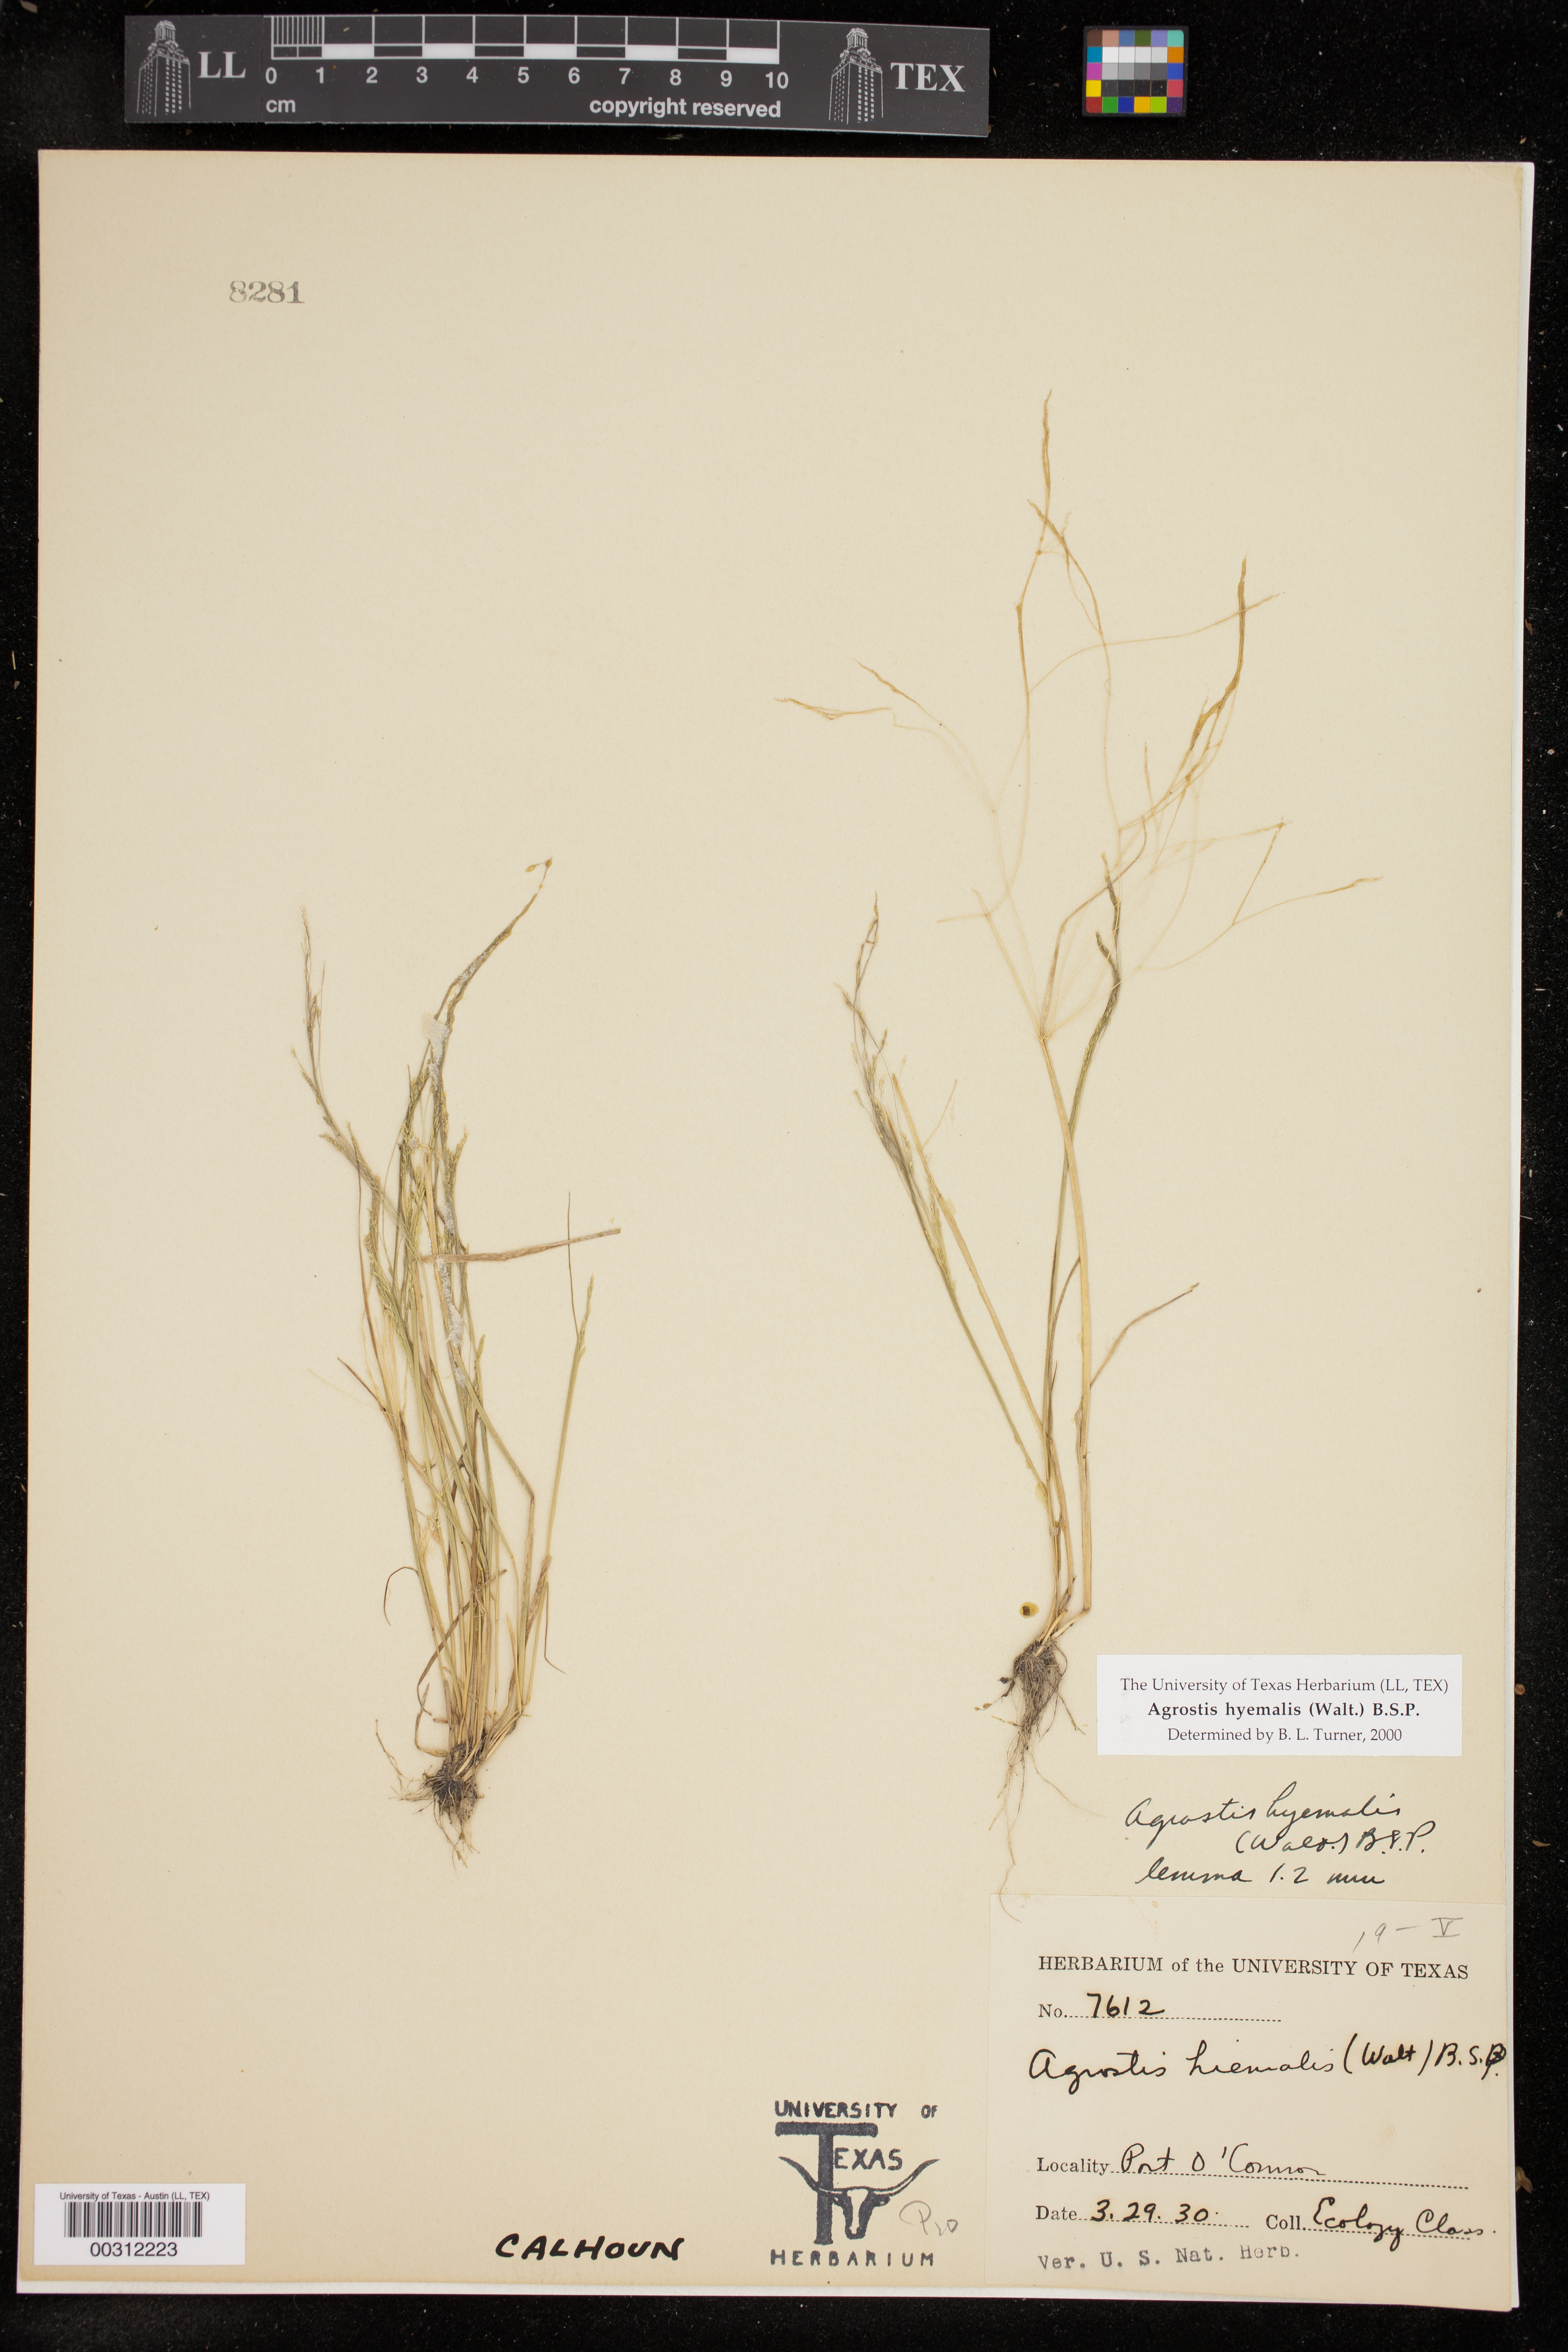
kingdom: Plantae
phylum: Tracheophyta
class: Liliopsida
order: Poales
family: Poaceae
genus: Agrostis
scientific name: Agrostis hyemalis
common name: Small bent
